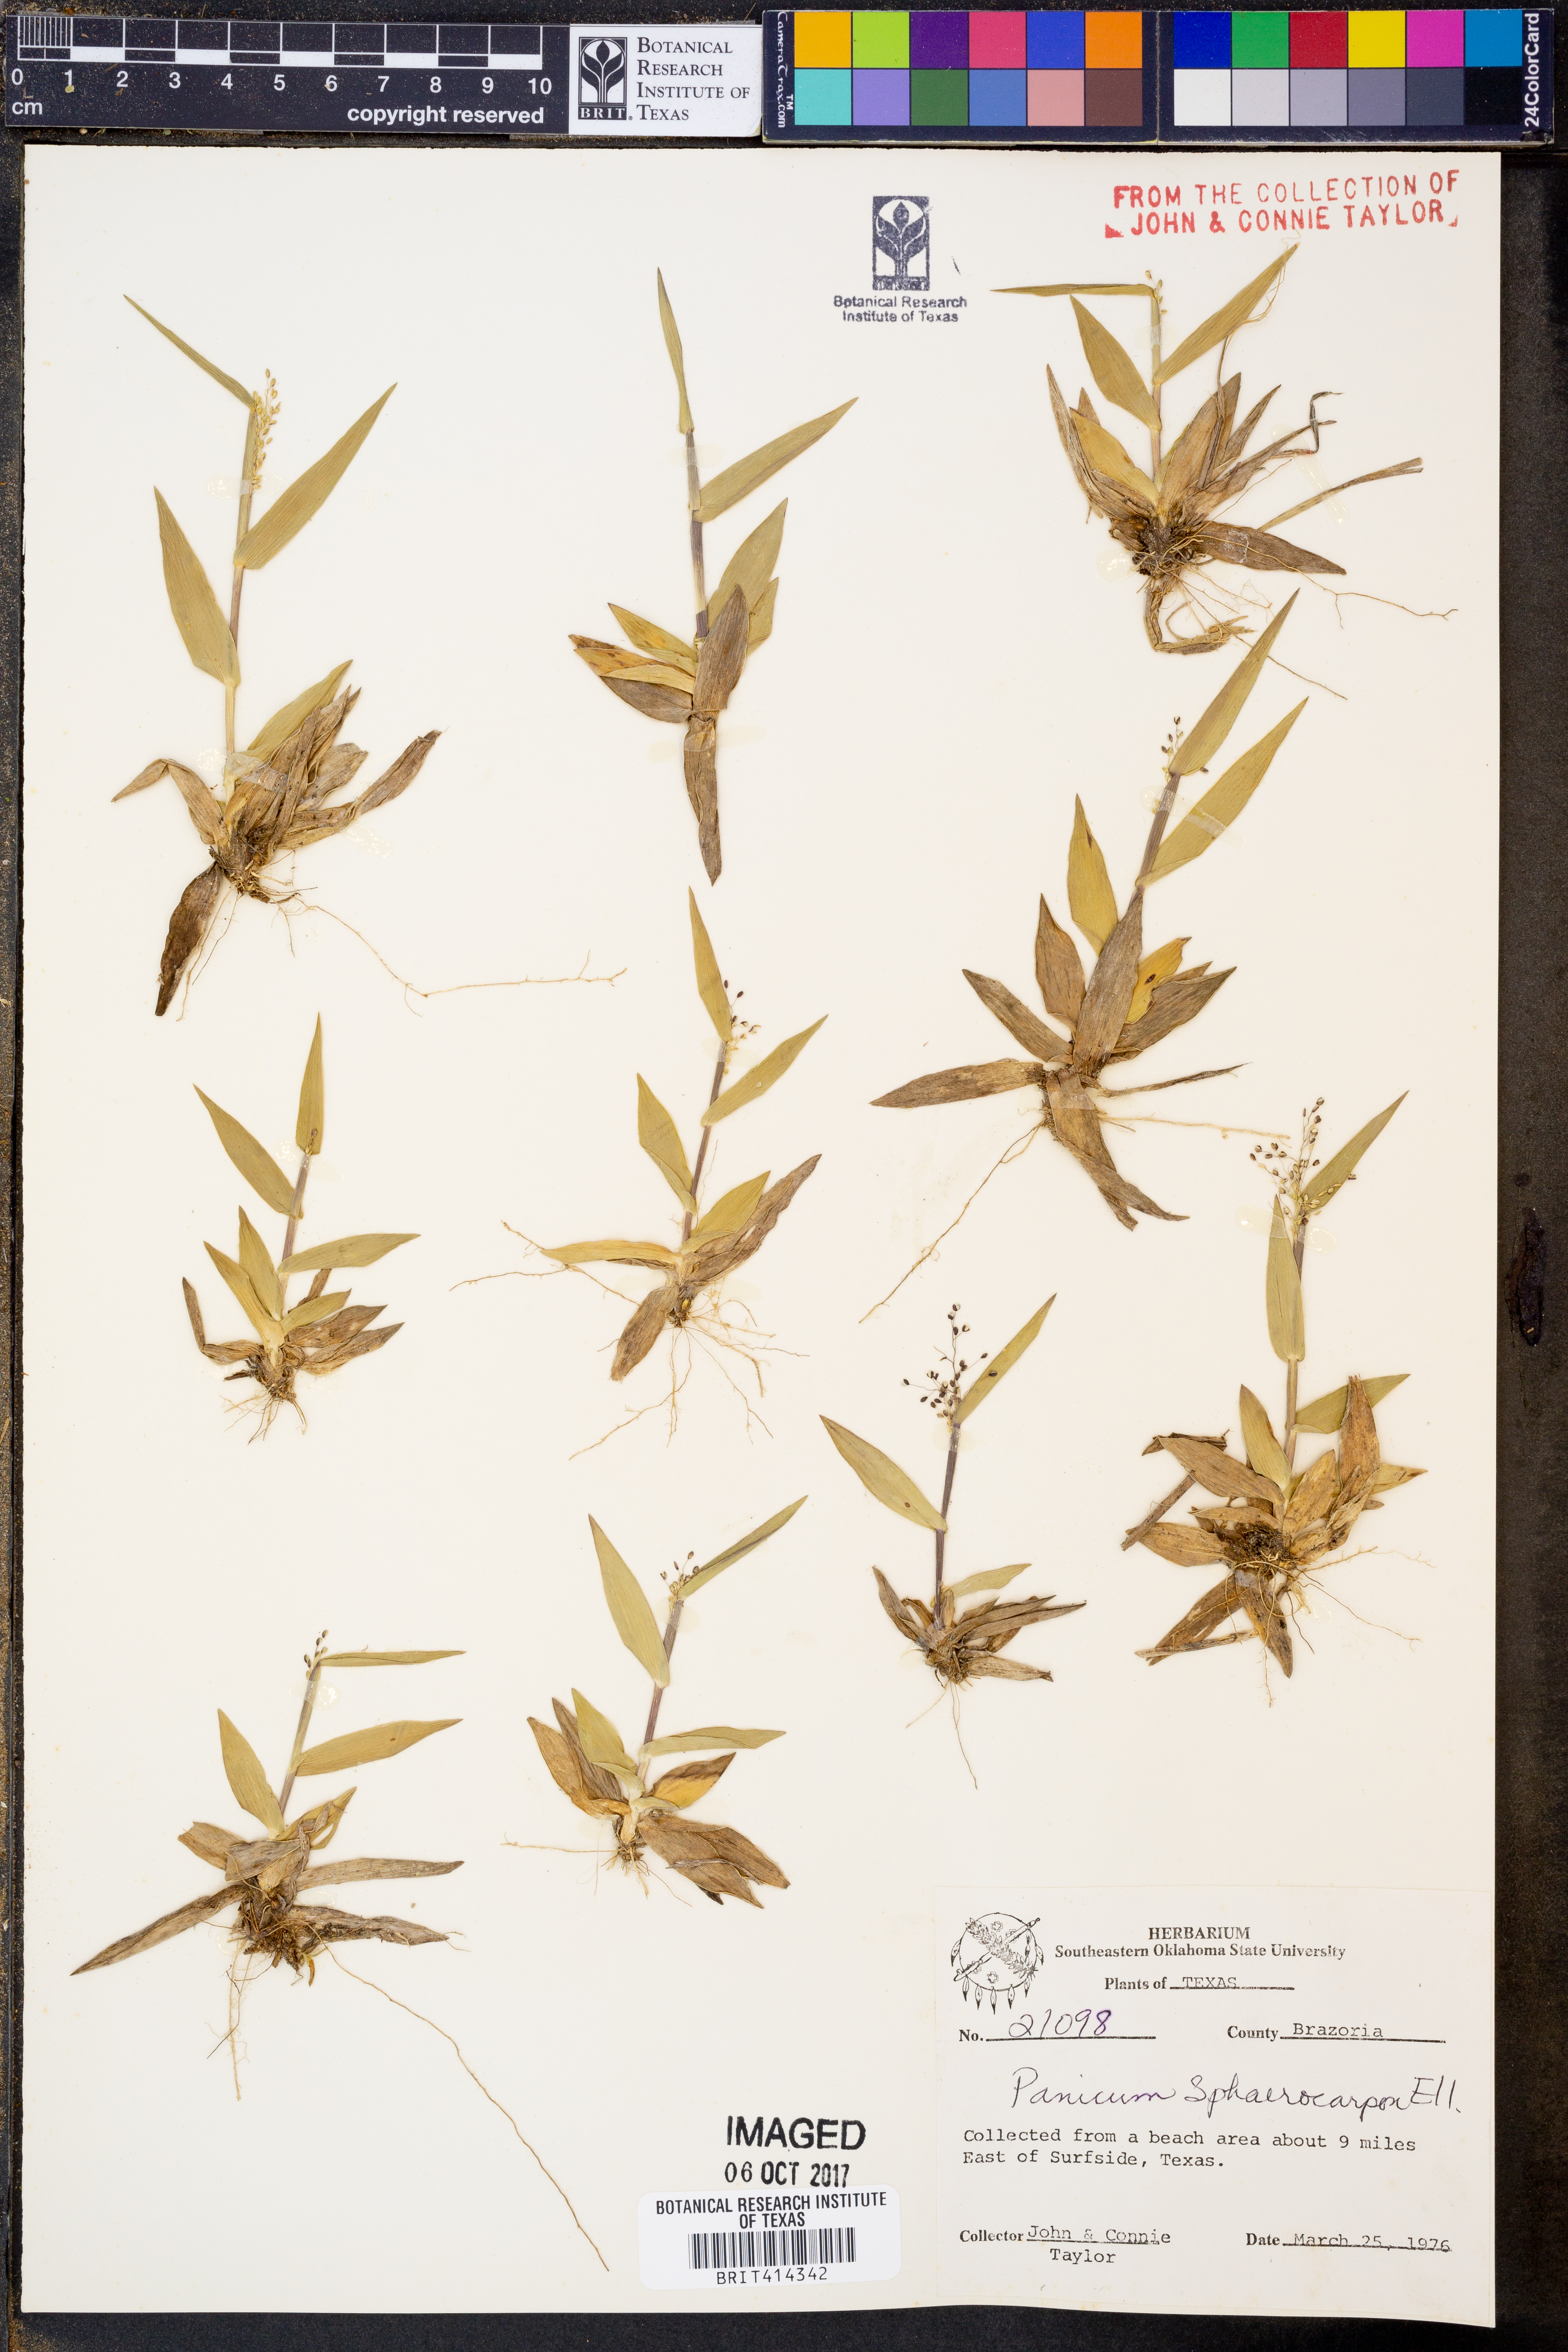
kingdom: Plantae
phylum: Tracheophyta
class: Liliopsida
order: Poales
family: Poaceae
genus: Dichanthelium
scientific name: Dichanthelium sphaerocarpon
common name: Round-fruited panicgrass
